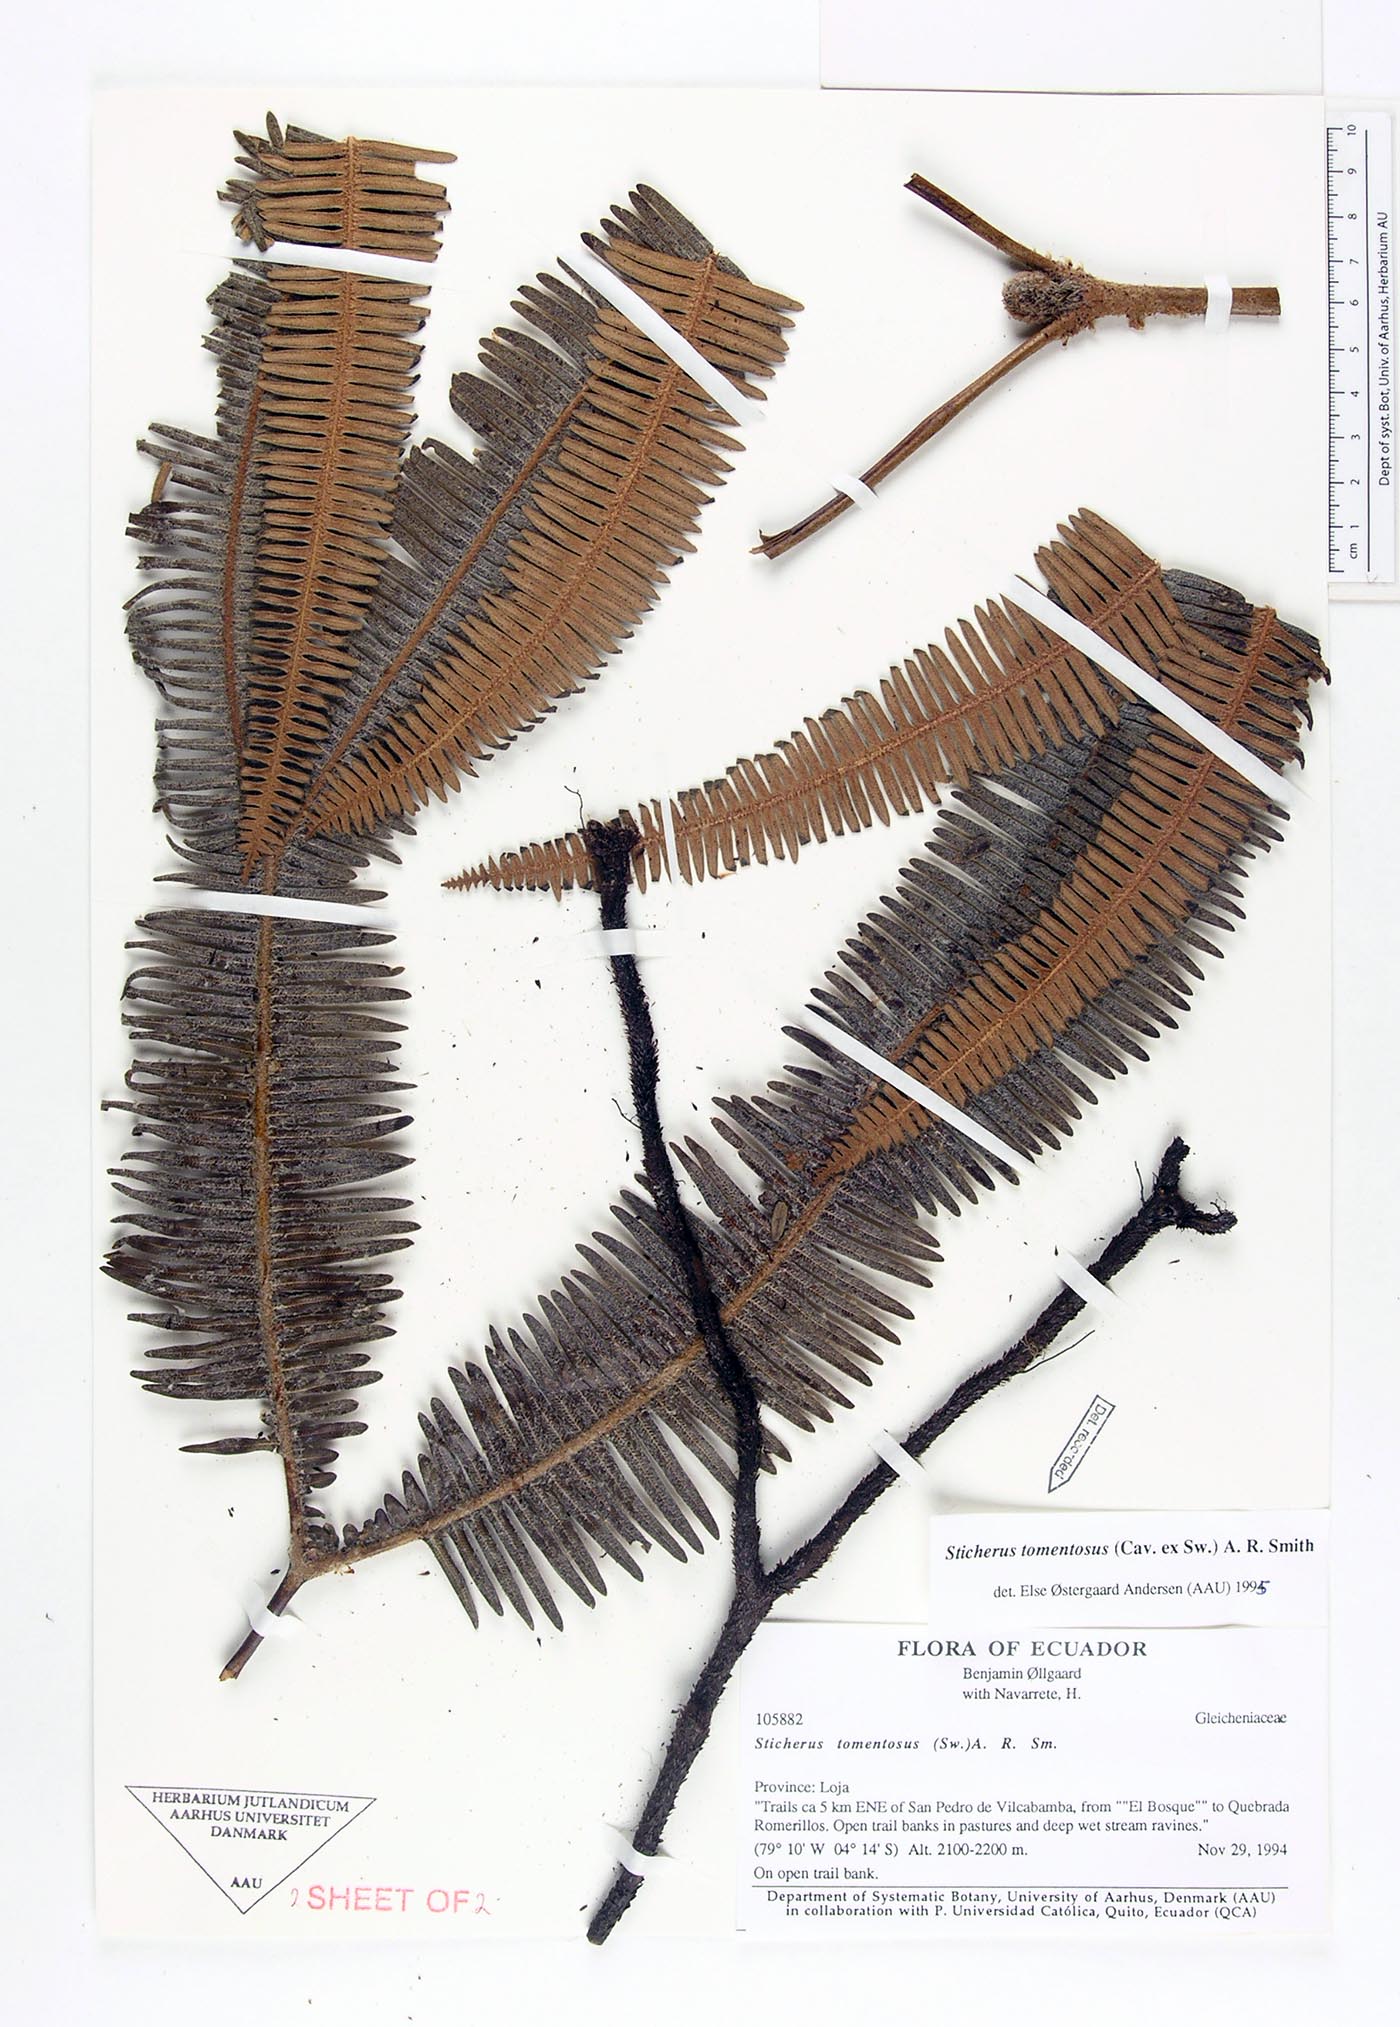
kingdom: Plantae
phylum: Tracheophyta
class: Polypodiopsida
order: Gleicheniales
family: Gleicheniaceae
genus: Sticherus
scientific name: Sticherus tomentosus
